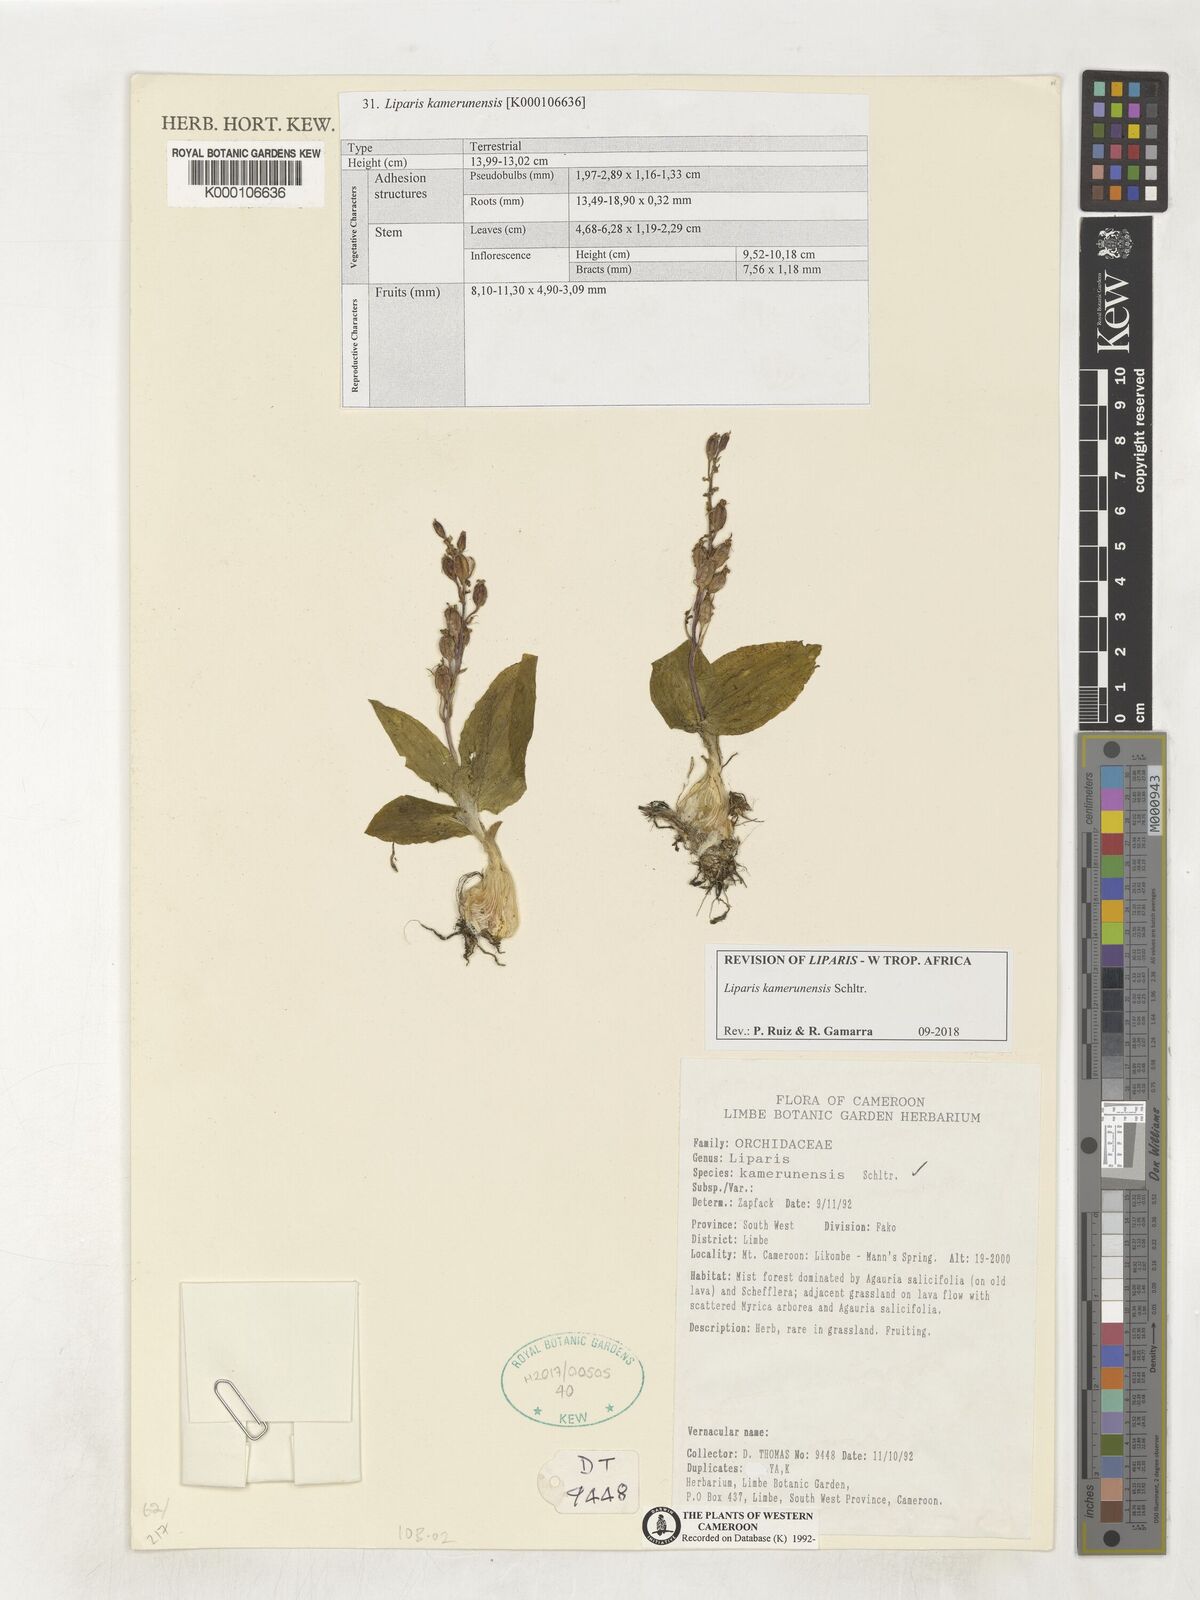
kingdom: Plantae
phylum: Tracheophyta
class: Liliopsida
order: Asparagales
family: Orchidaceae
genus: Liparis
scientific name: Liparis kamerunensis
